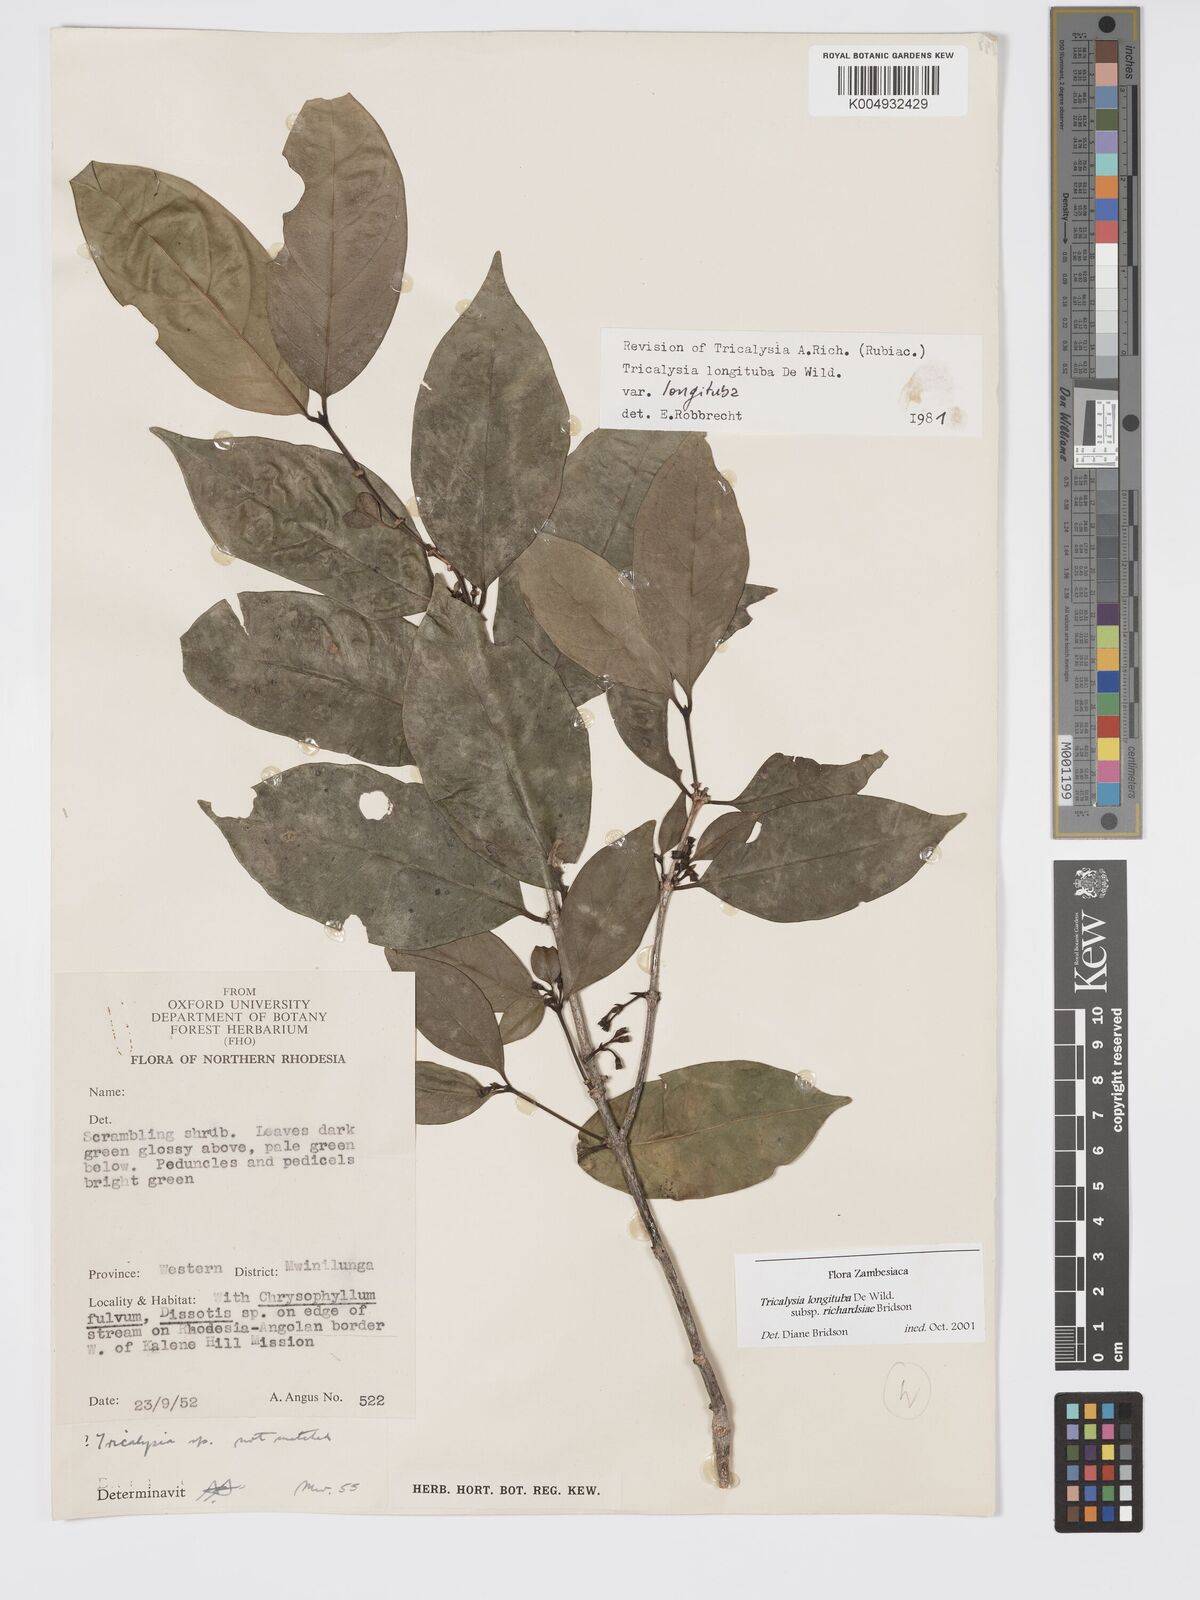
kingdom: Plantae
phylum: Tracheophyta
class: Magnoliopsida
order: Gentianales
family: Rubiaceae
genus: Tricalysia
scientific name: Tricalysia
